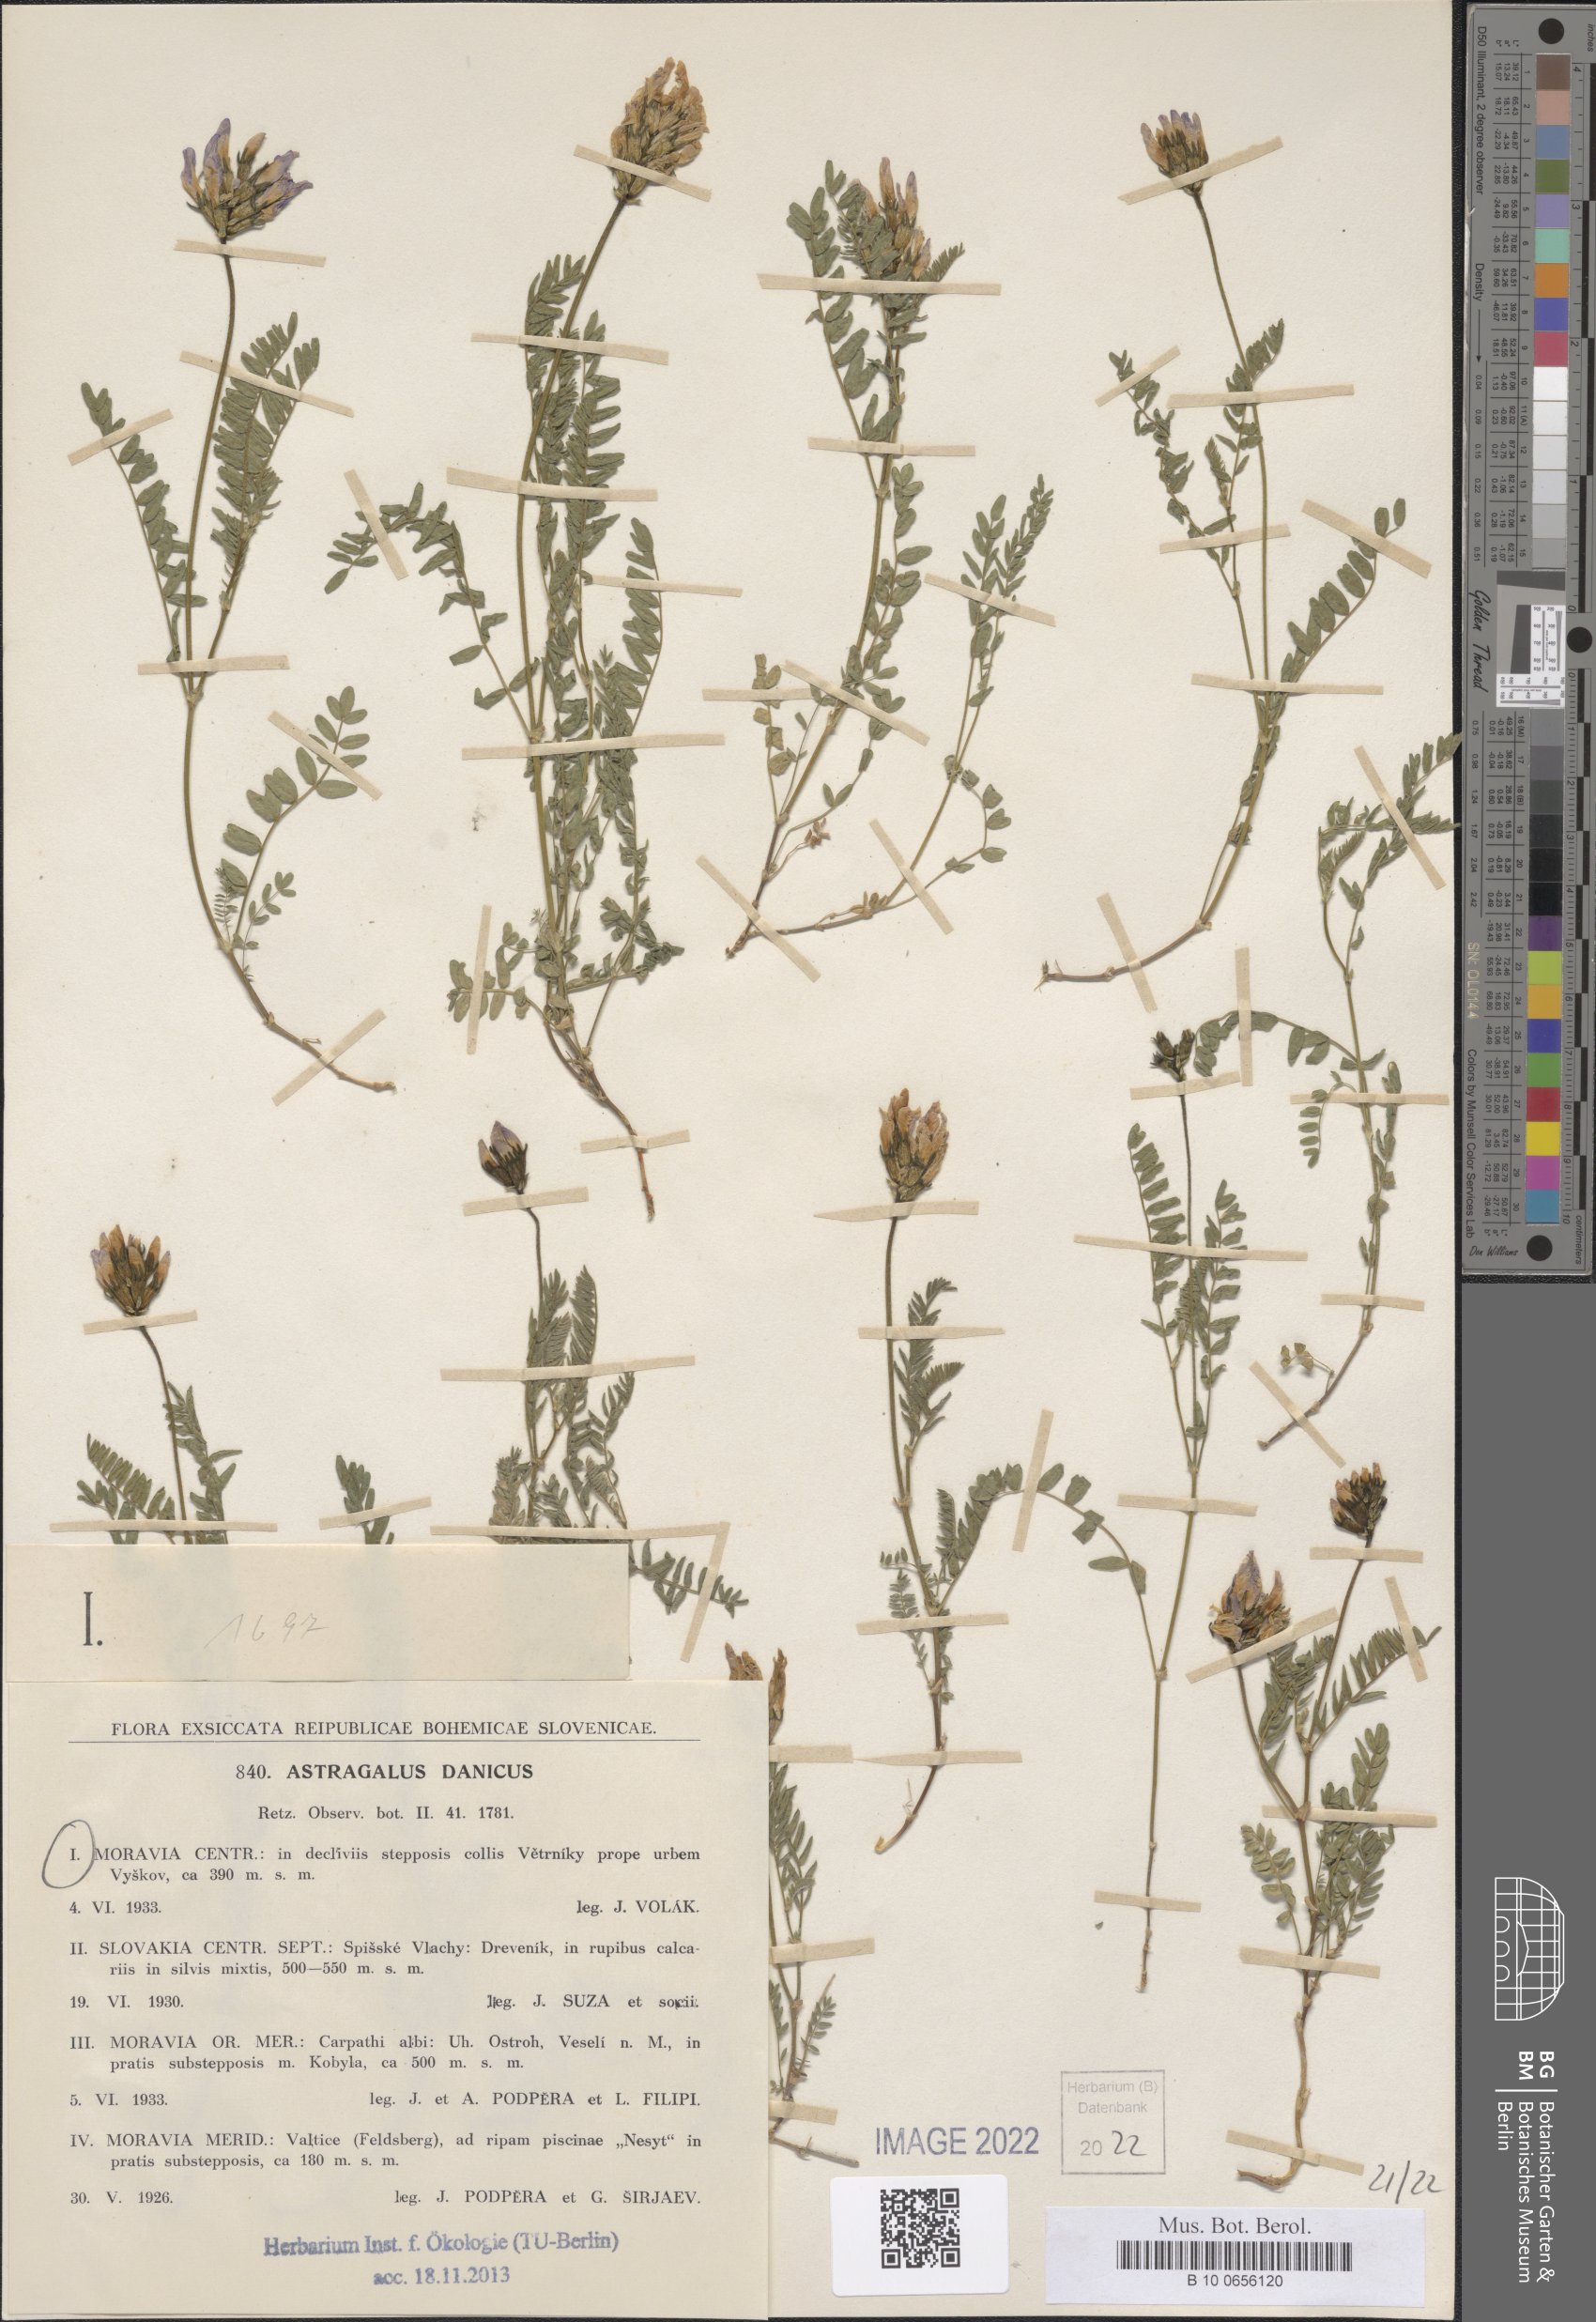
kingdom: Plantae
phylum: Tracheophyta
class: Magnoliopsida
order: Fabales
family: Fabaceae
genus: Astragalus
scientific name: Astragalus danicus
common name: Purple milk-vetch
